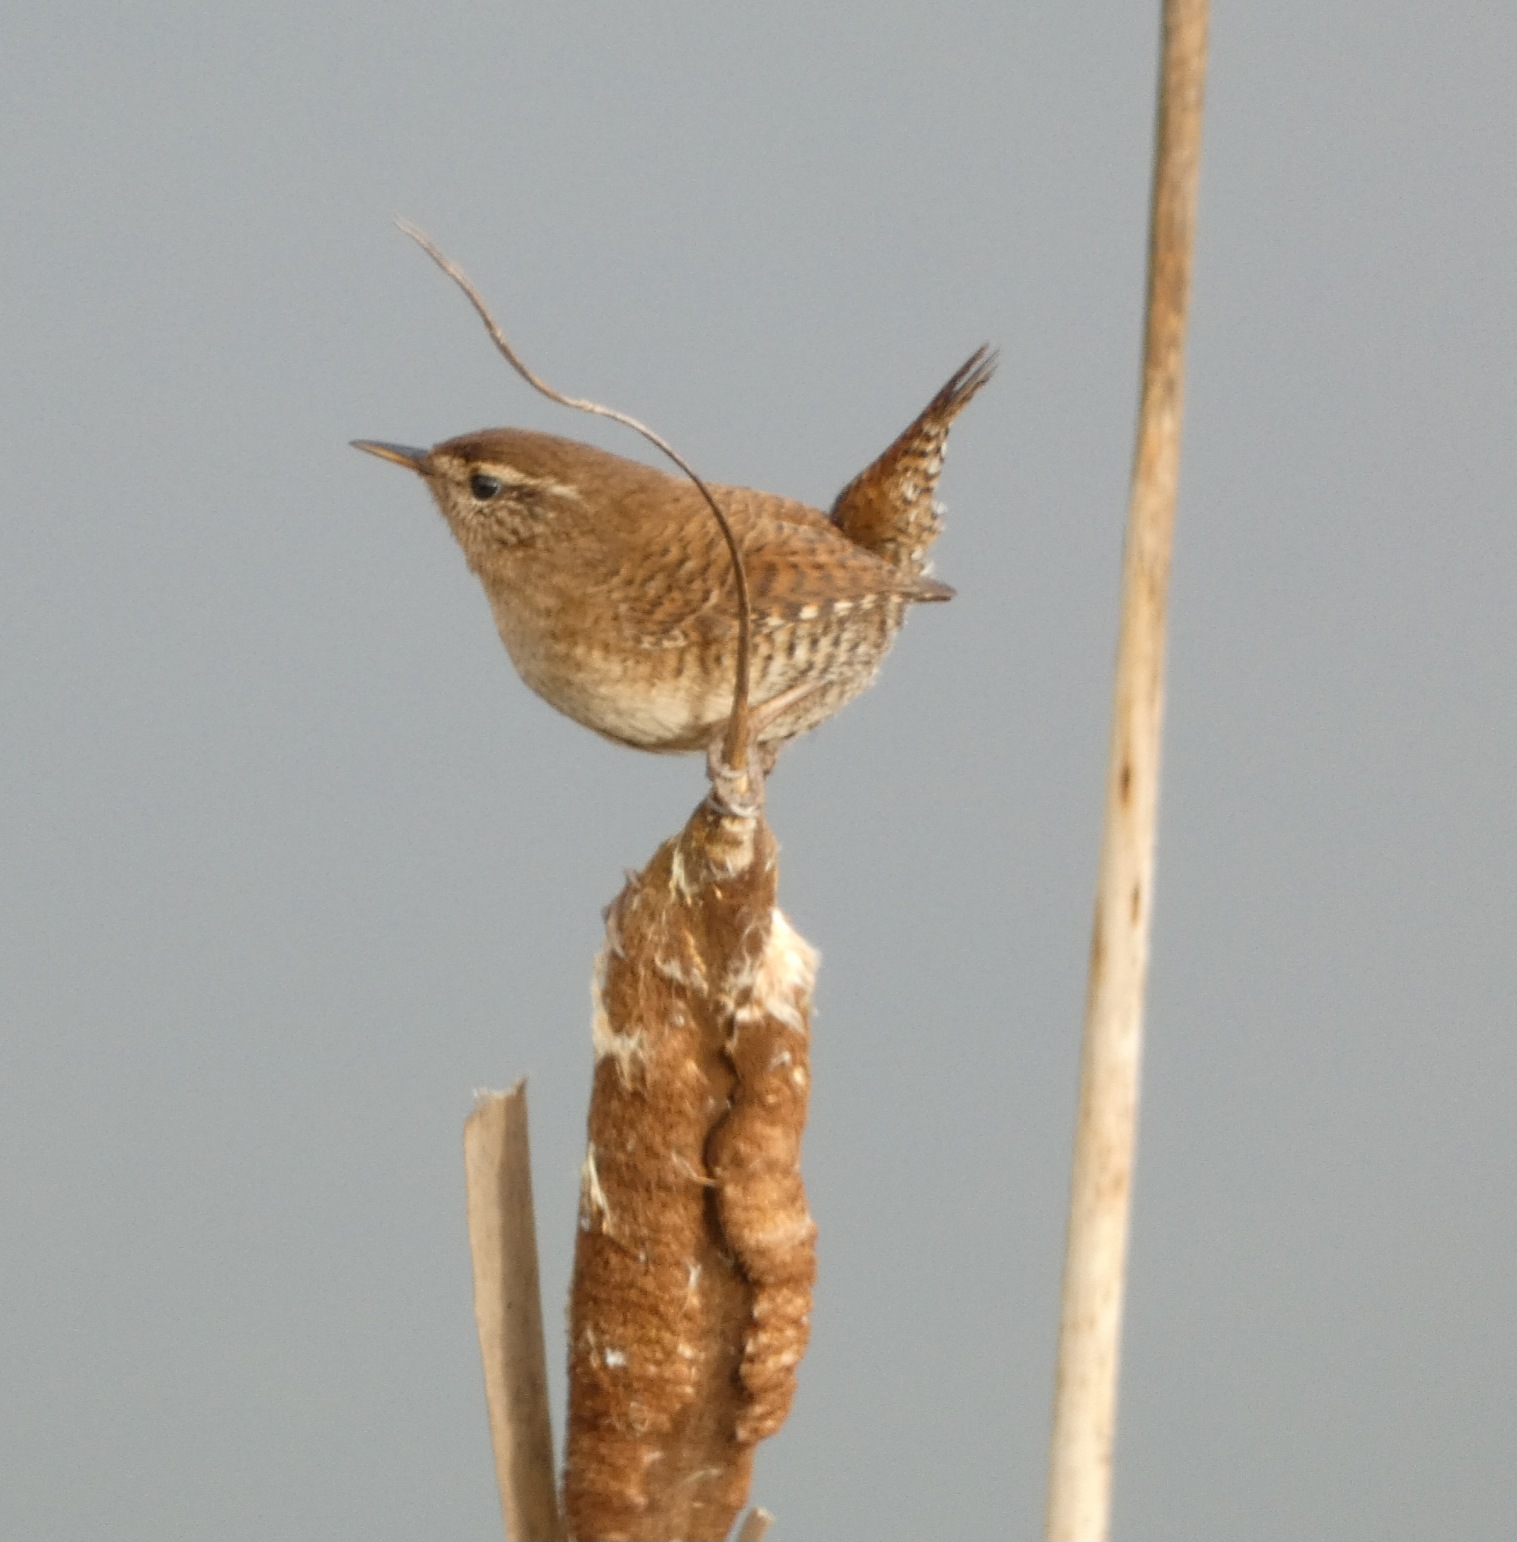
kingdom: Animalia
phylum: Chordata
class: Aves
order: Passeriformes
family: Troglodytidae
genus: Troglodytes
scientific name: Troglodytes troglodytes
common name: Gærdesmutte
